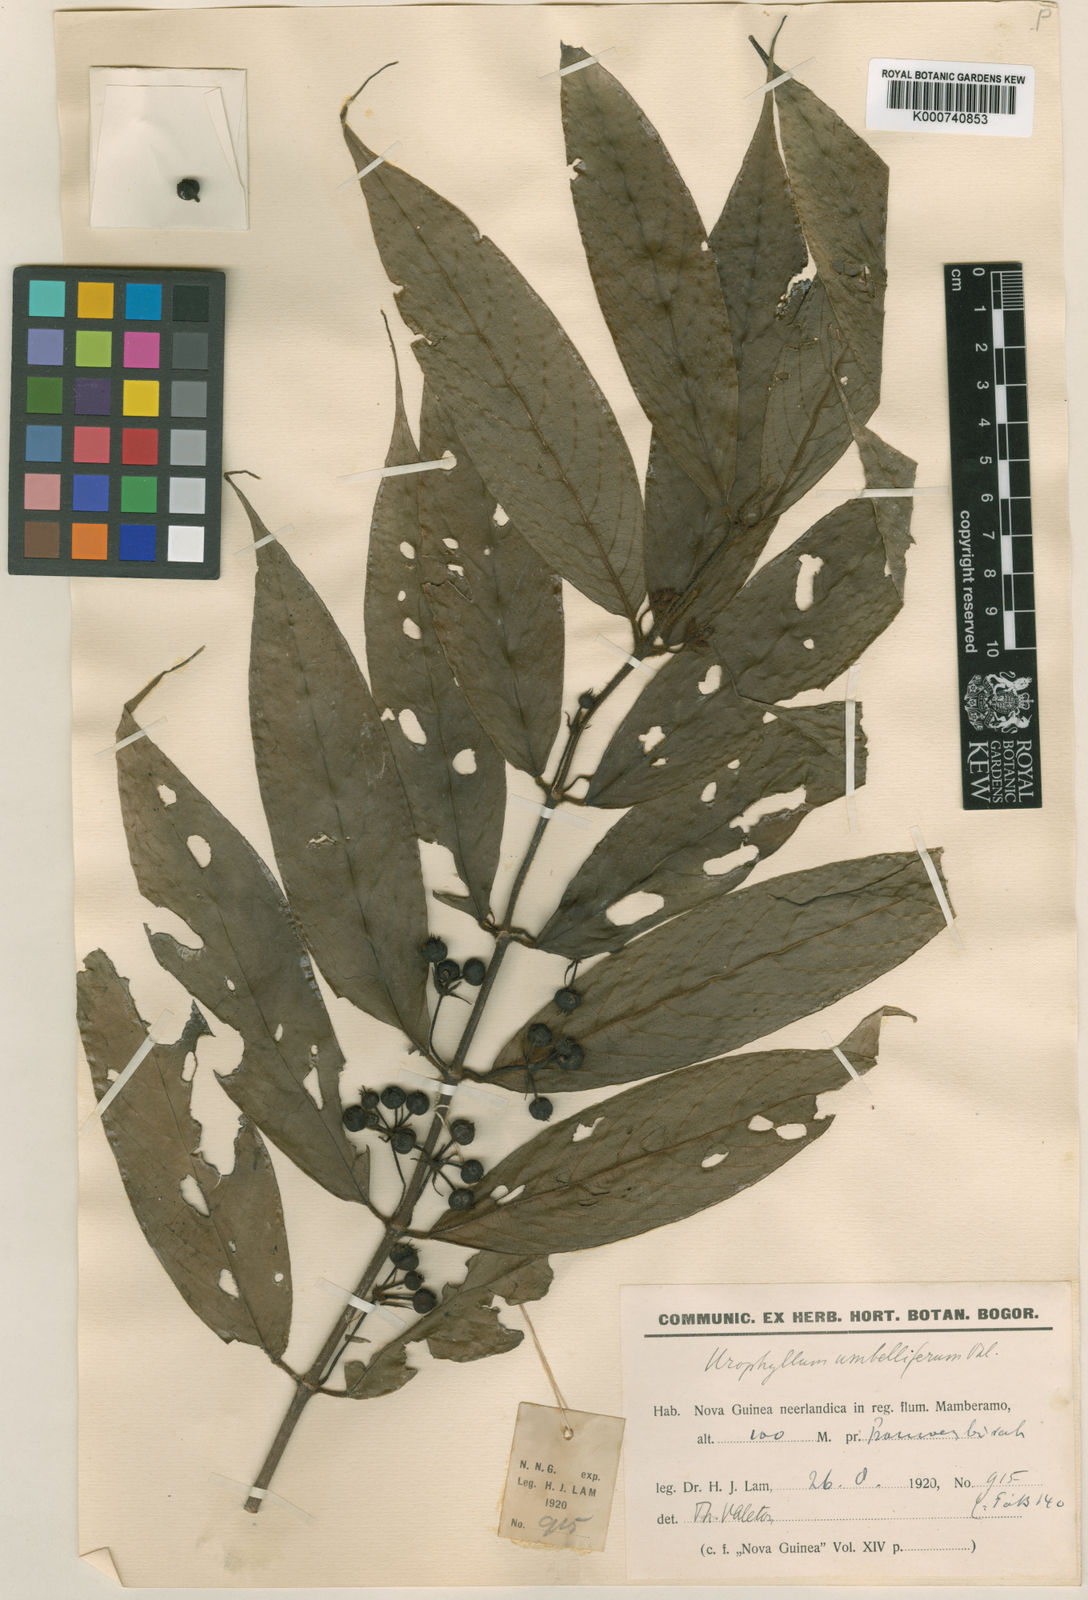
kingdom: Plantae
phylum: Tracheophyta
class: Magnoliopsida
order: Gentianales
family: Rubiaceae
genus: Urophyllum
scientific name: Urophyllum umbelliferum
